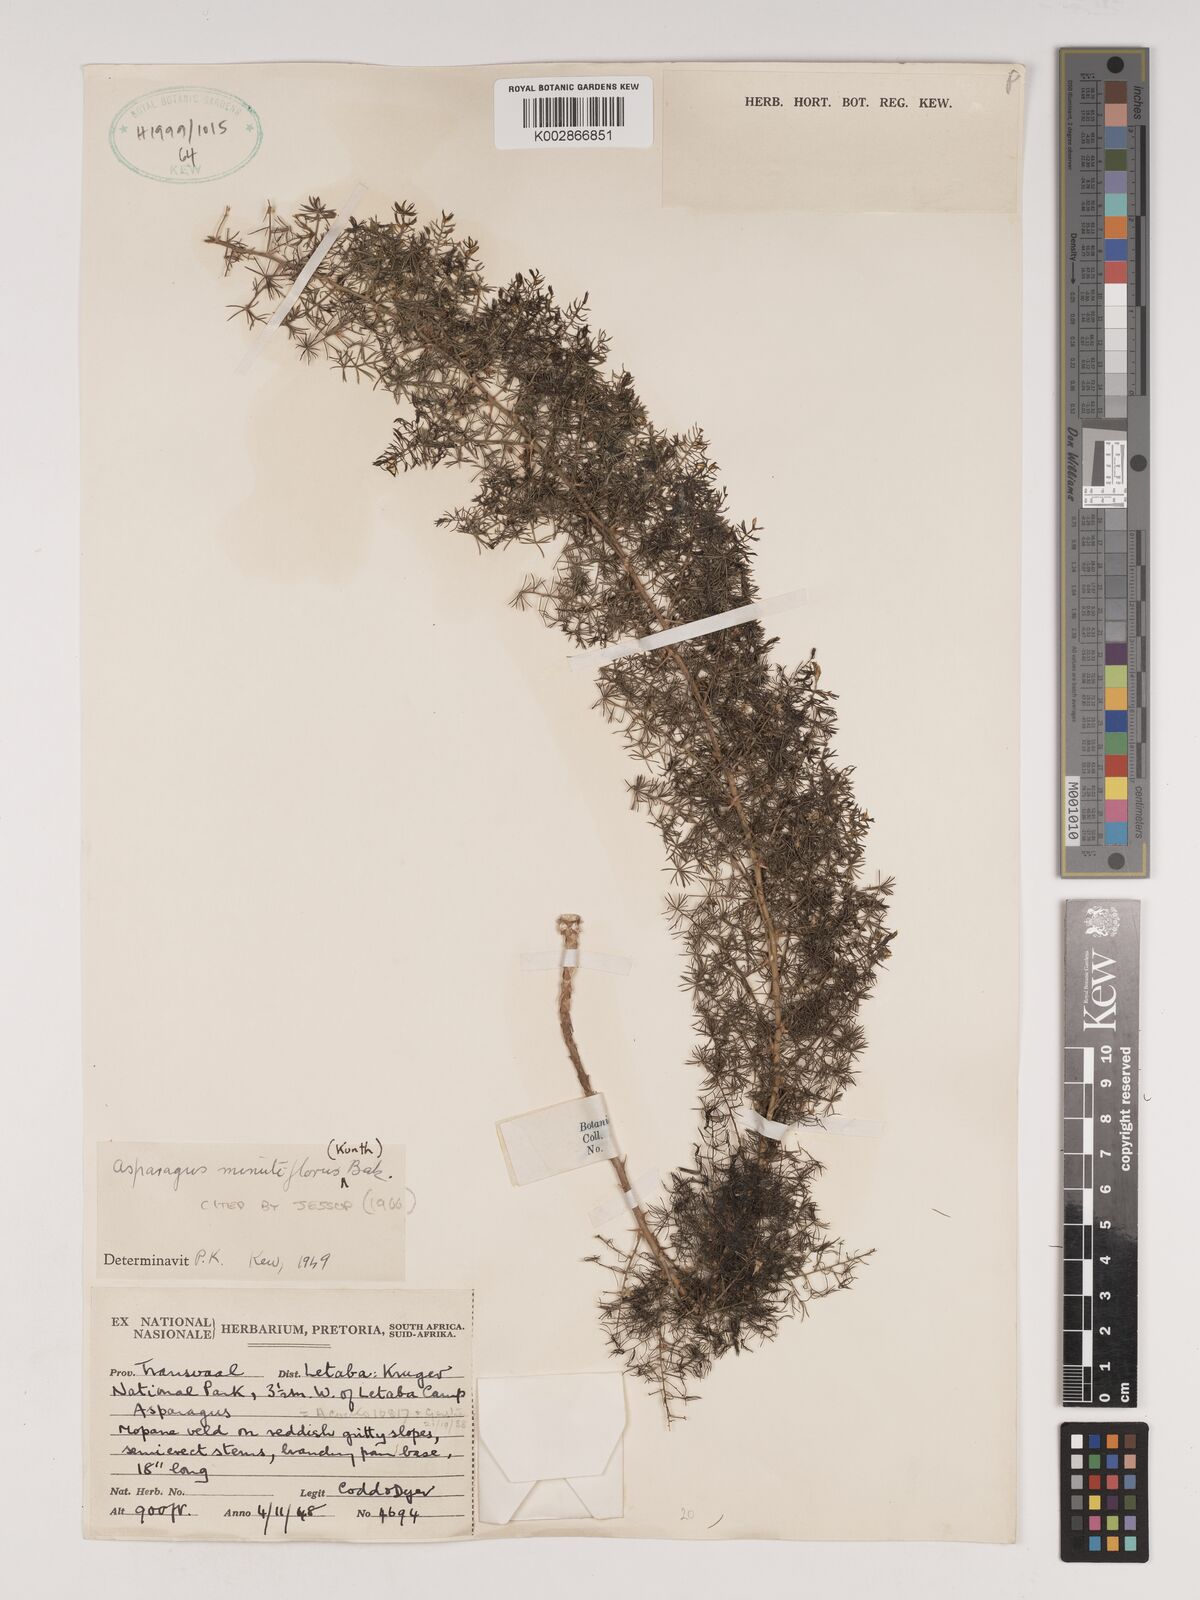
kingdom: Plantae
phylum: Tracheophyta
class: Liliopsida
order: Asparagales
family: Asparagaceae
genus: Asparagus
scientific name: Asparagus minutiflorus
